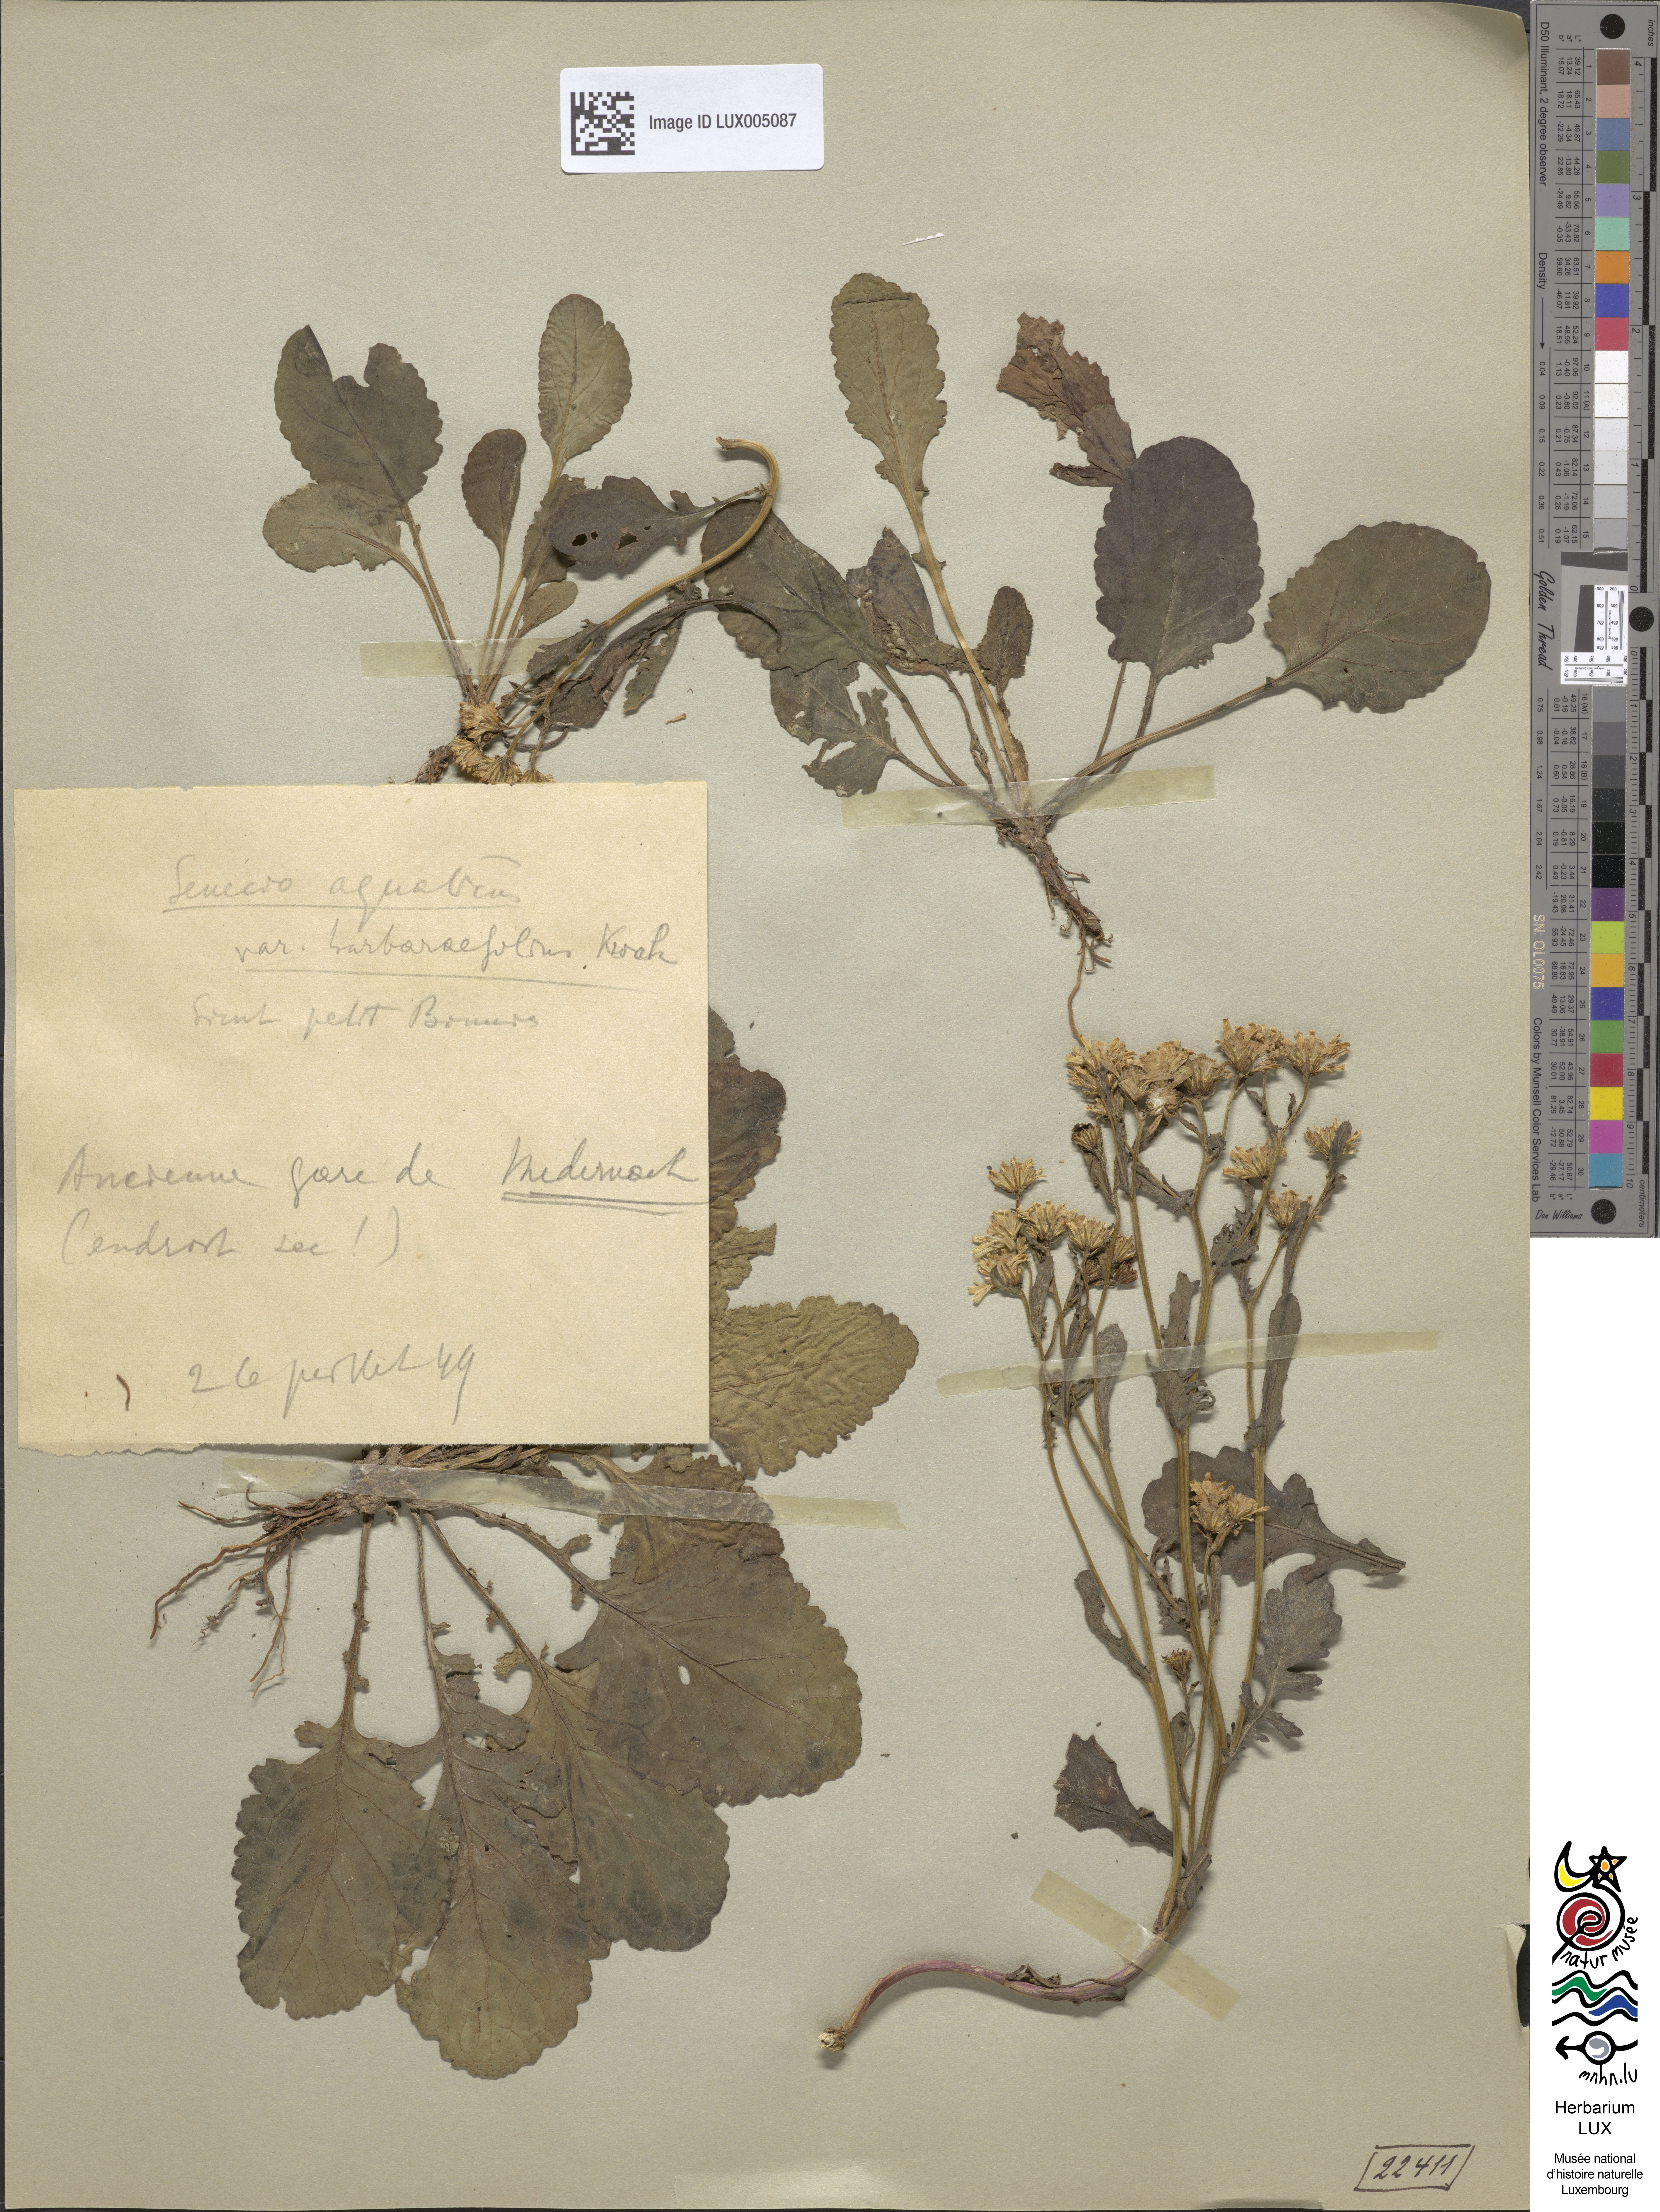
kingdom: Plantae
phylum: Tracheophyta
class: Magnoliopsida
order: Asterales
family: Asteraceae
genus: Jacobaea
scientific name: Jacobaea aquatica
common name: Water ragwort
